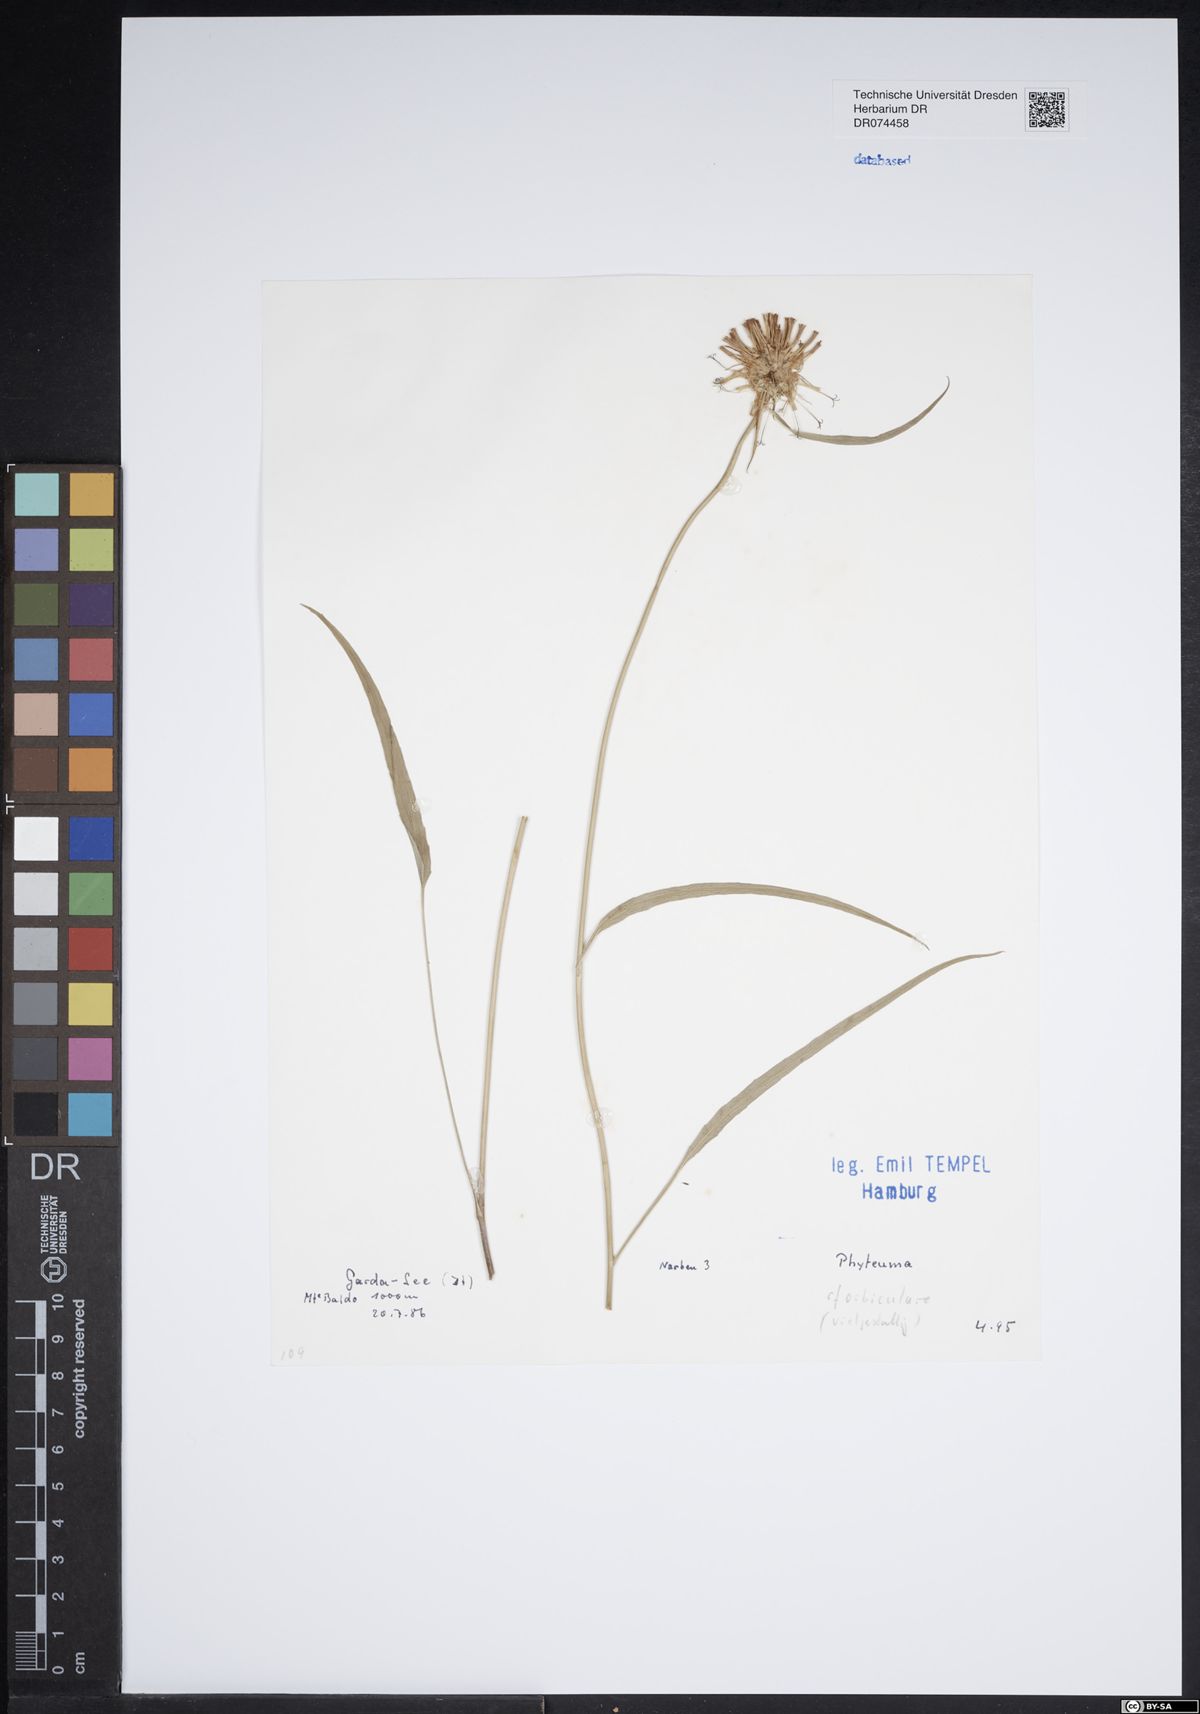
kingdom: Plantae
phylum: Tracheophyta
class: Magnoliopsida
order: Asterales
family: Campanulaceae
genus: Phyteuma
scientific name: Phyteuma orbiculare
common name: Round-headed rampion
